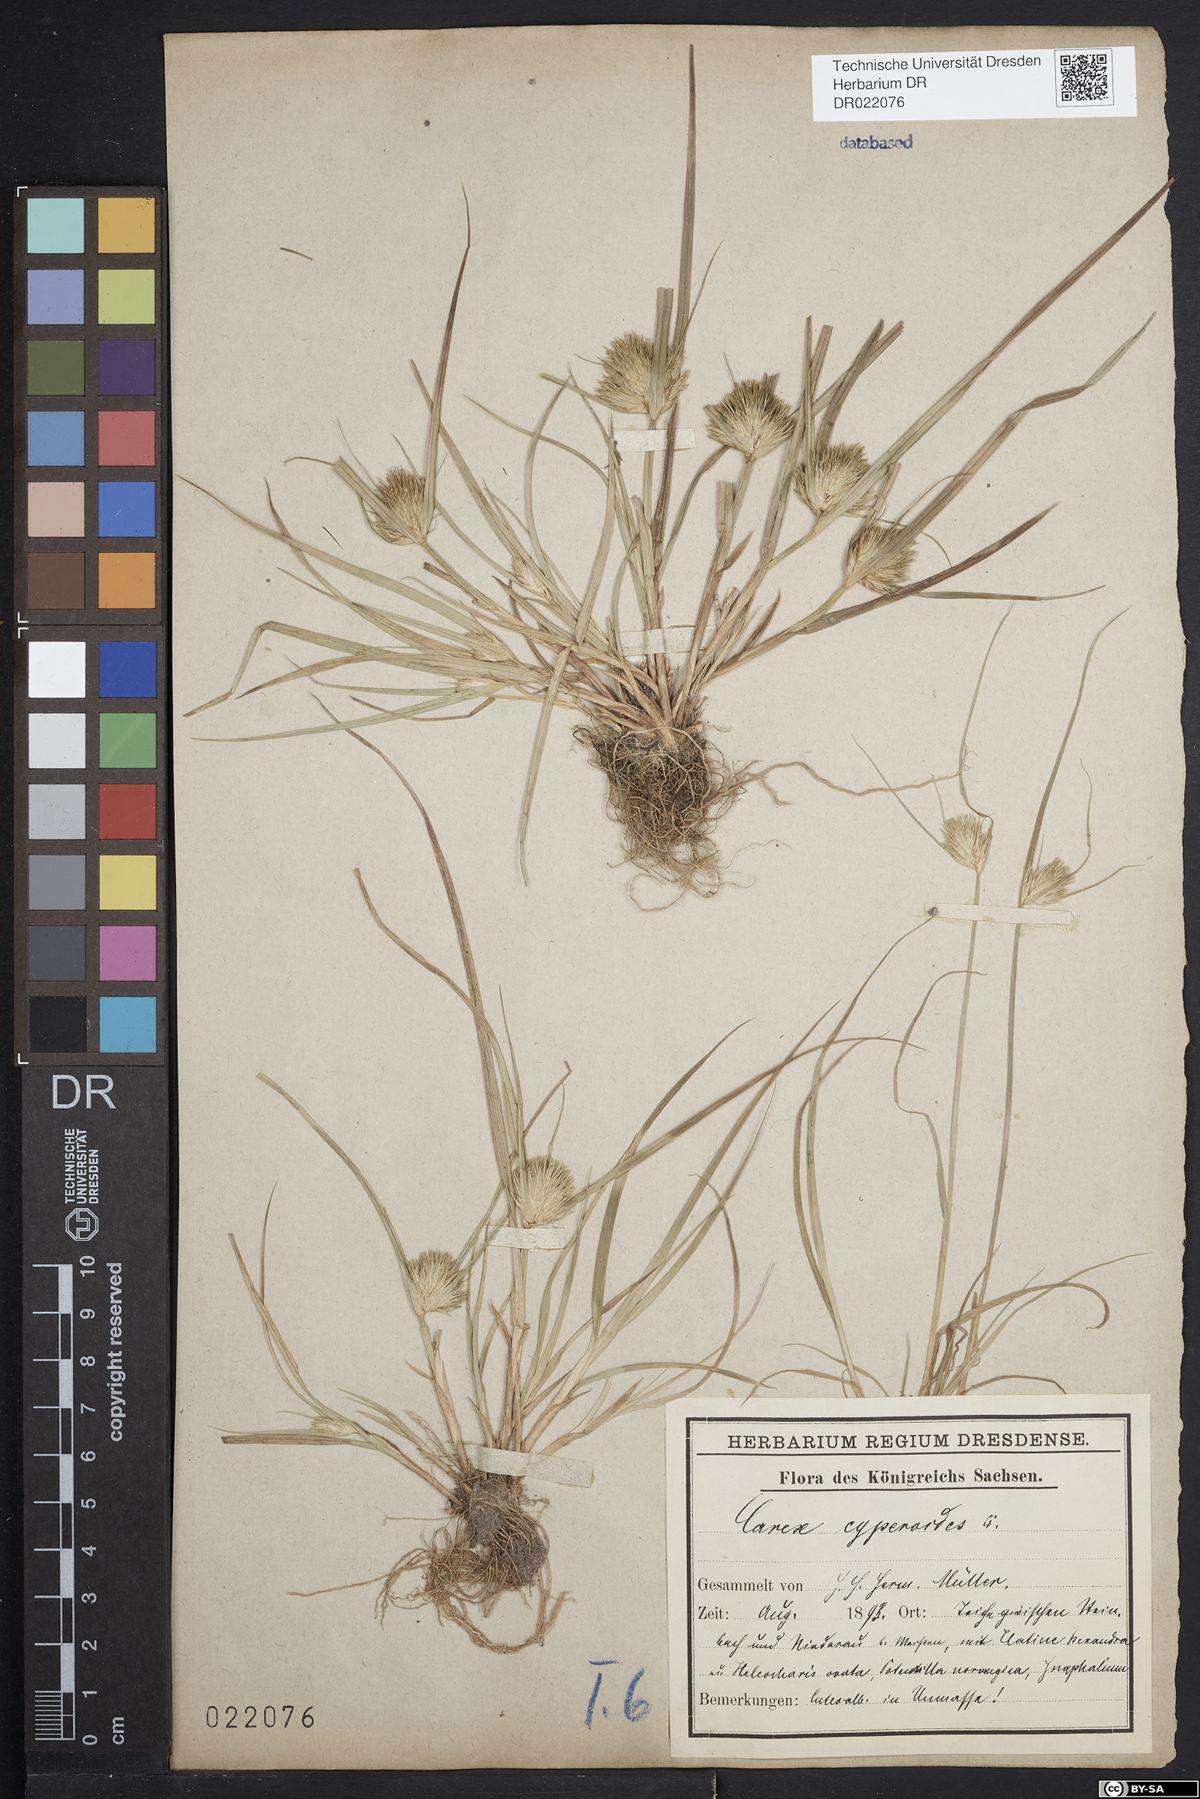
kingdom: Plantae
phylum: Tracheophyta
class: Liliopsida
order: Poales
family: Cyperaceae
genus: Carex
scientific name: Carex bohemica
